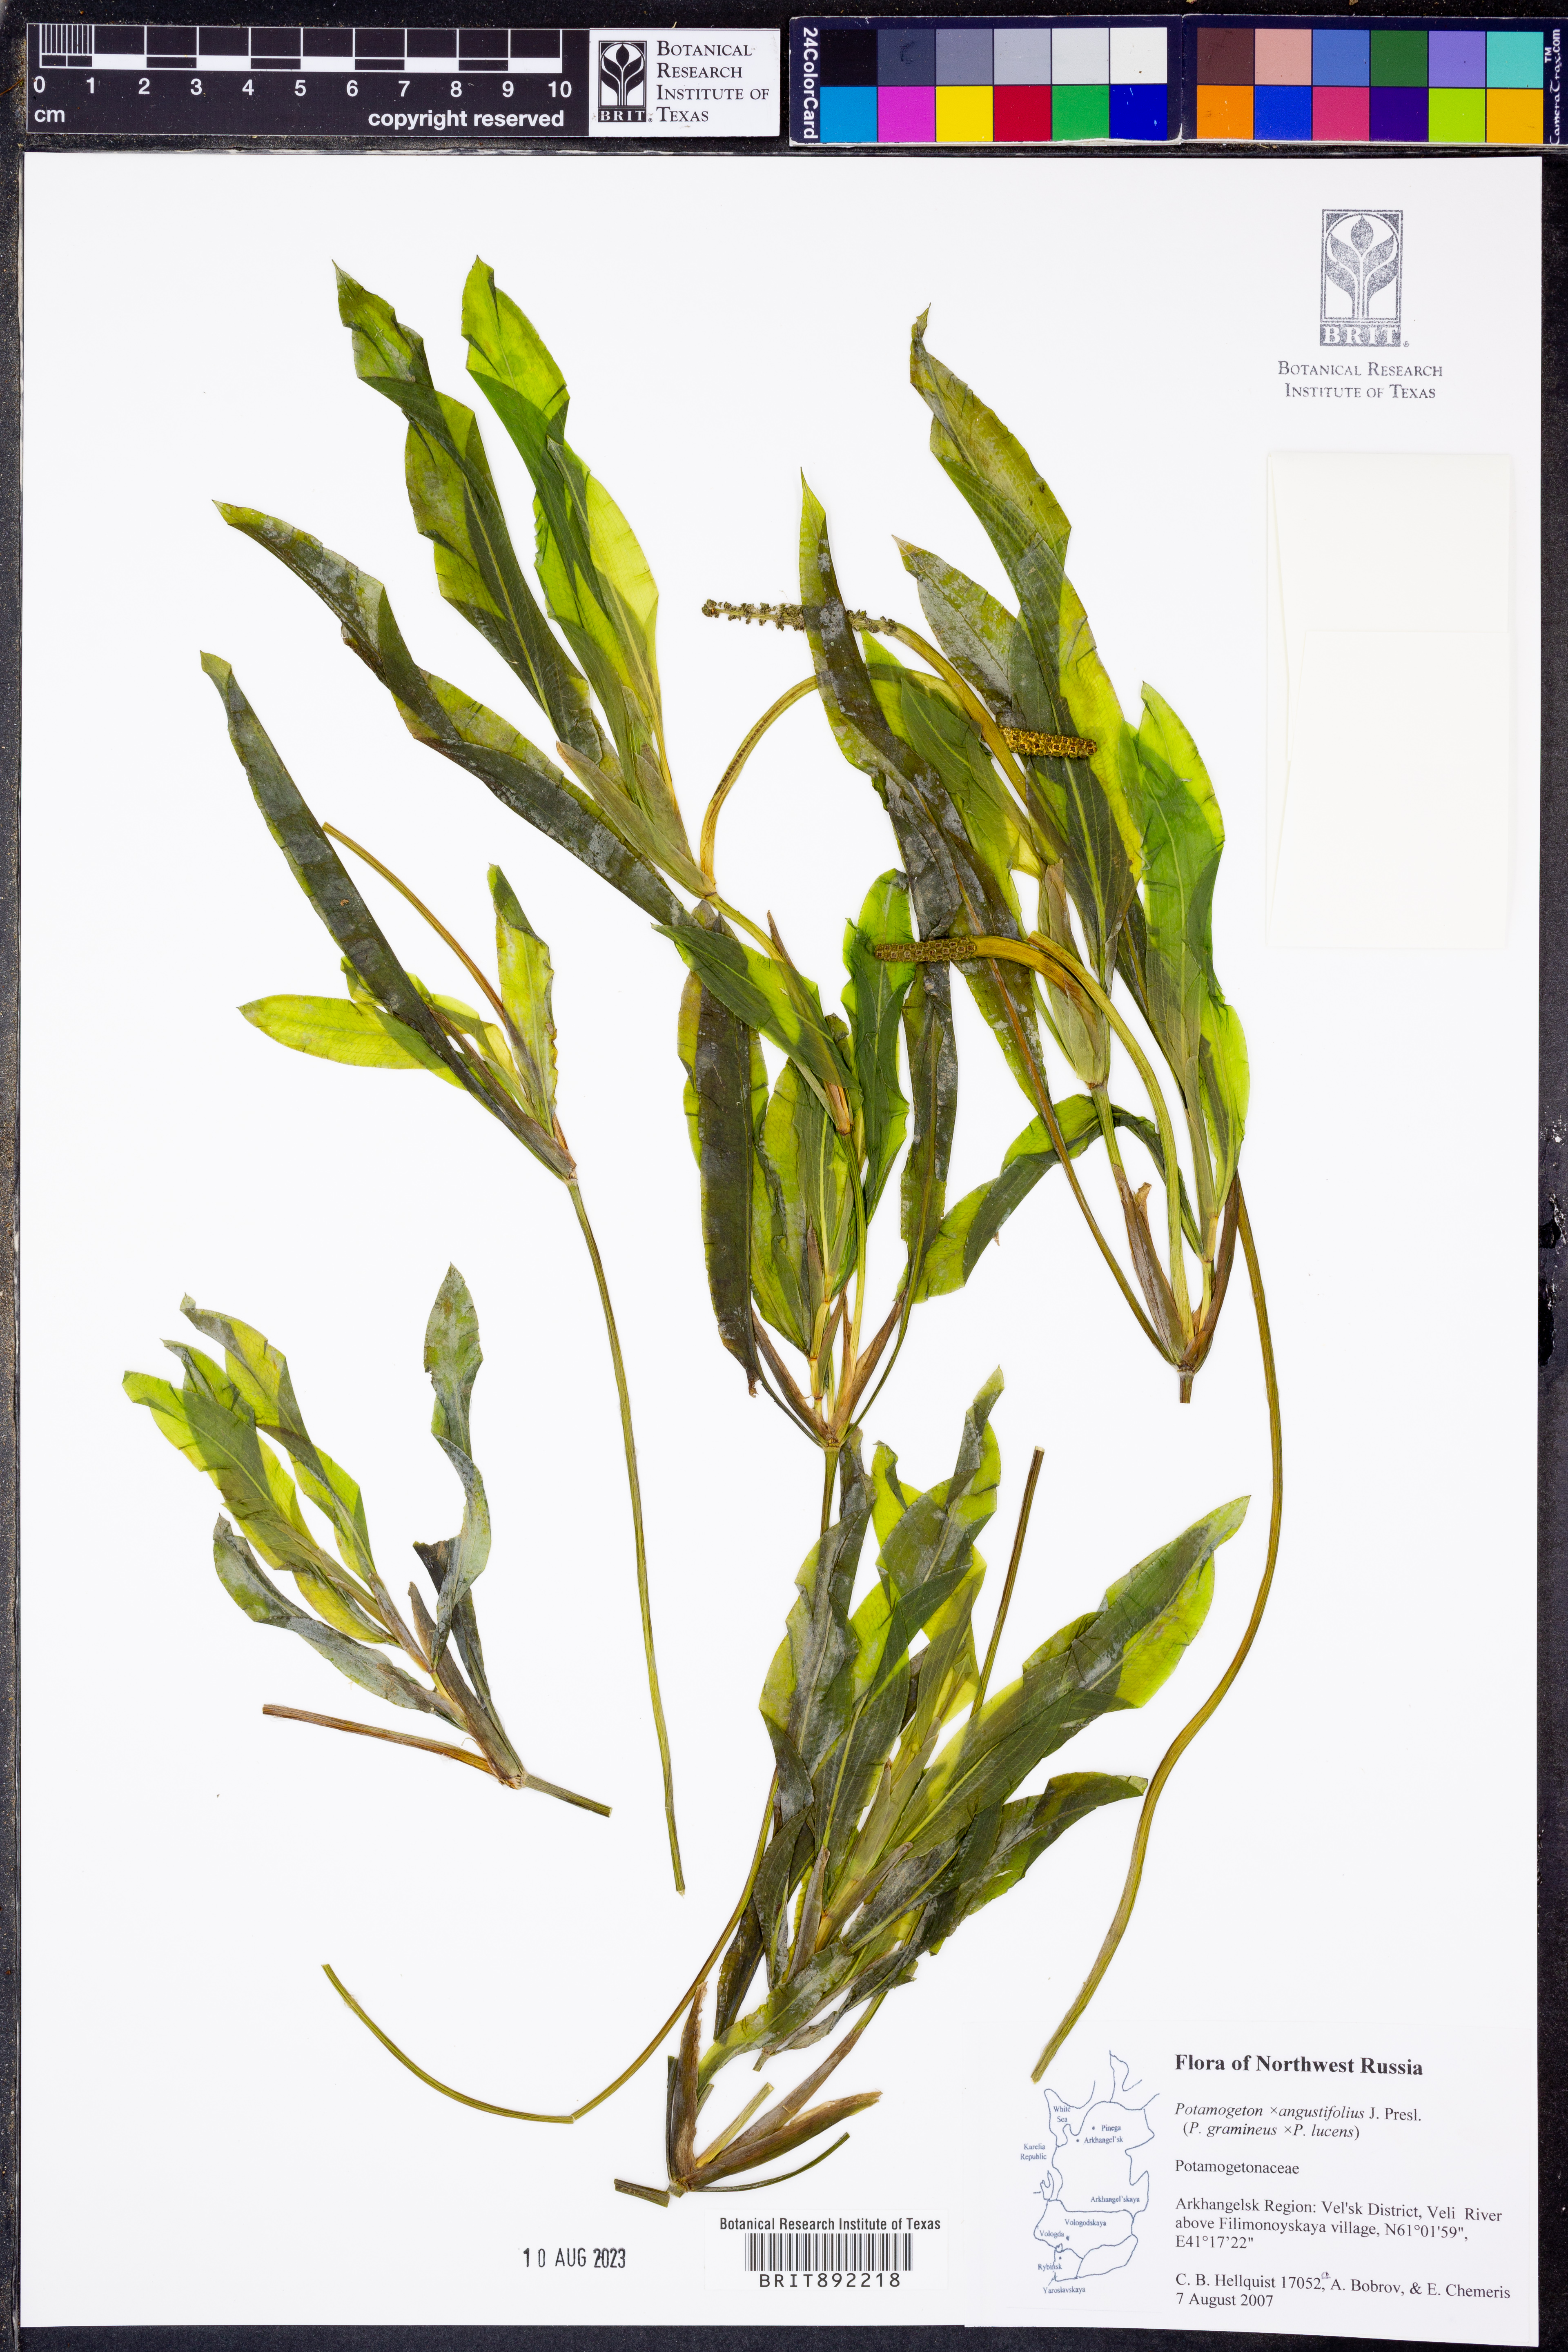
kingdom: Plantae
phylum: Tracheophyta
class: Liliopsida
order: Alismatales
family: Potamogetonaceae
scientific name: Potamogetonaceae
